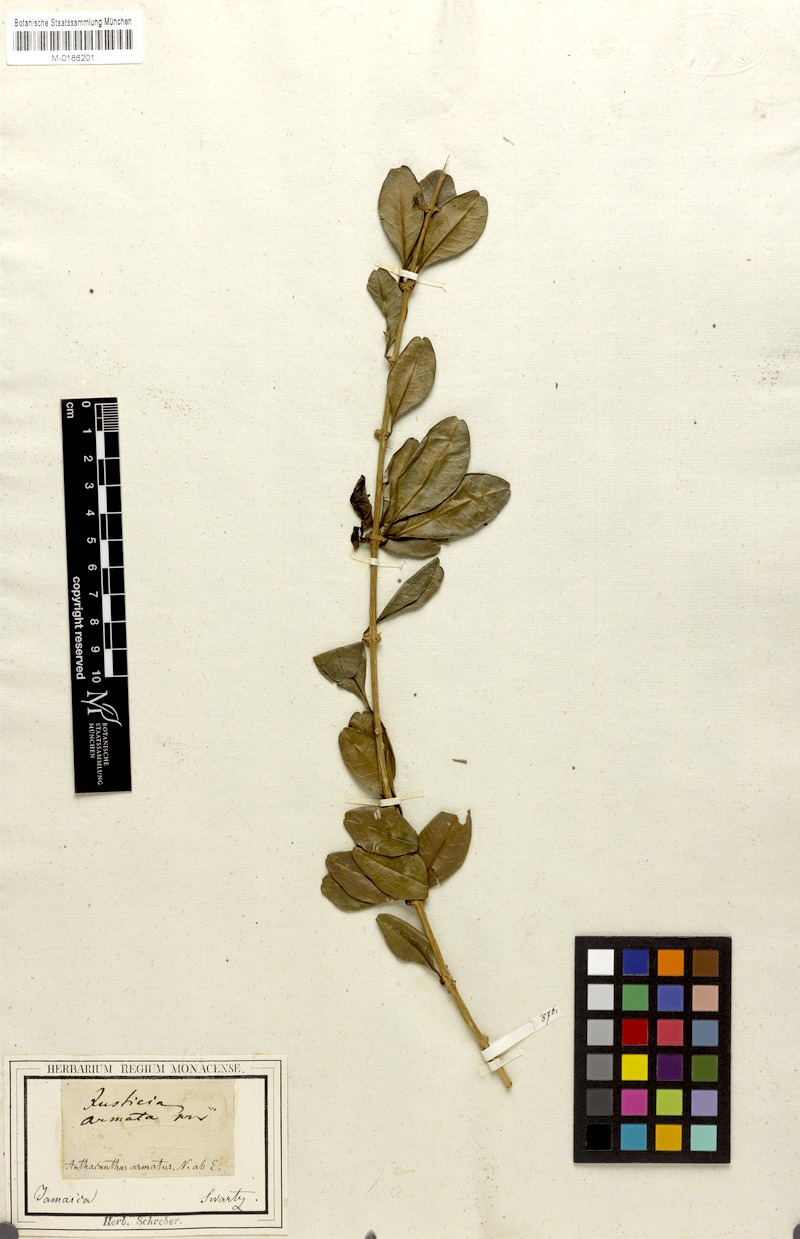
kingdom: Plantae
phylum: Tracheophyta
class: Magnoliopsida
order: Lamiales
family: Acanthaceae
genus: Oplonia
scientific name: Oplonia armata
